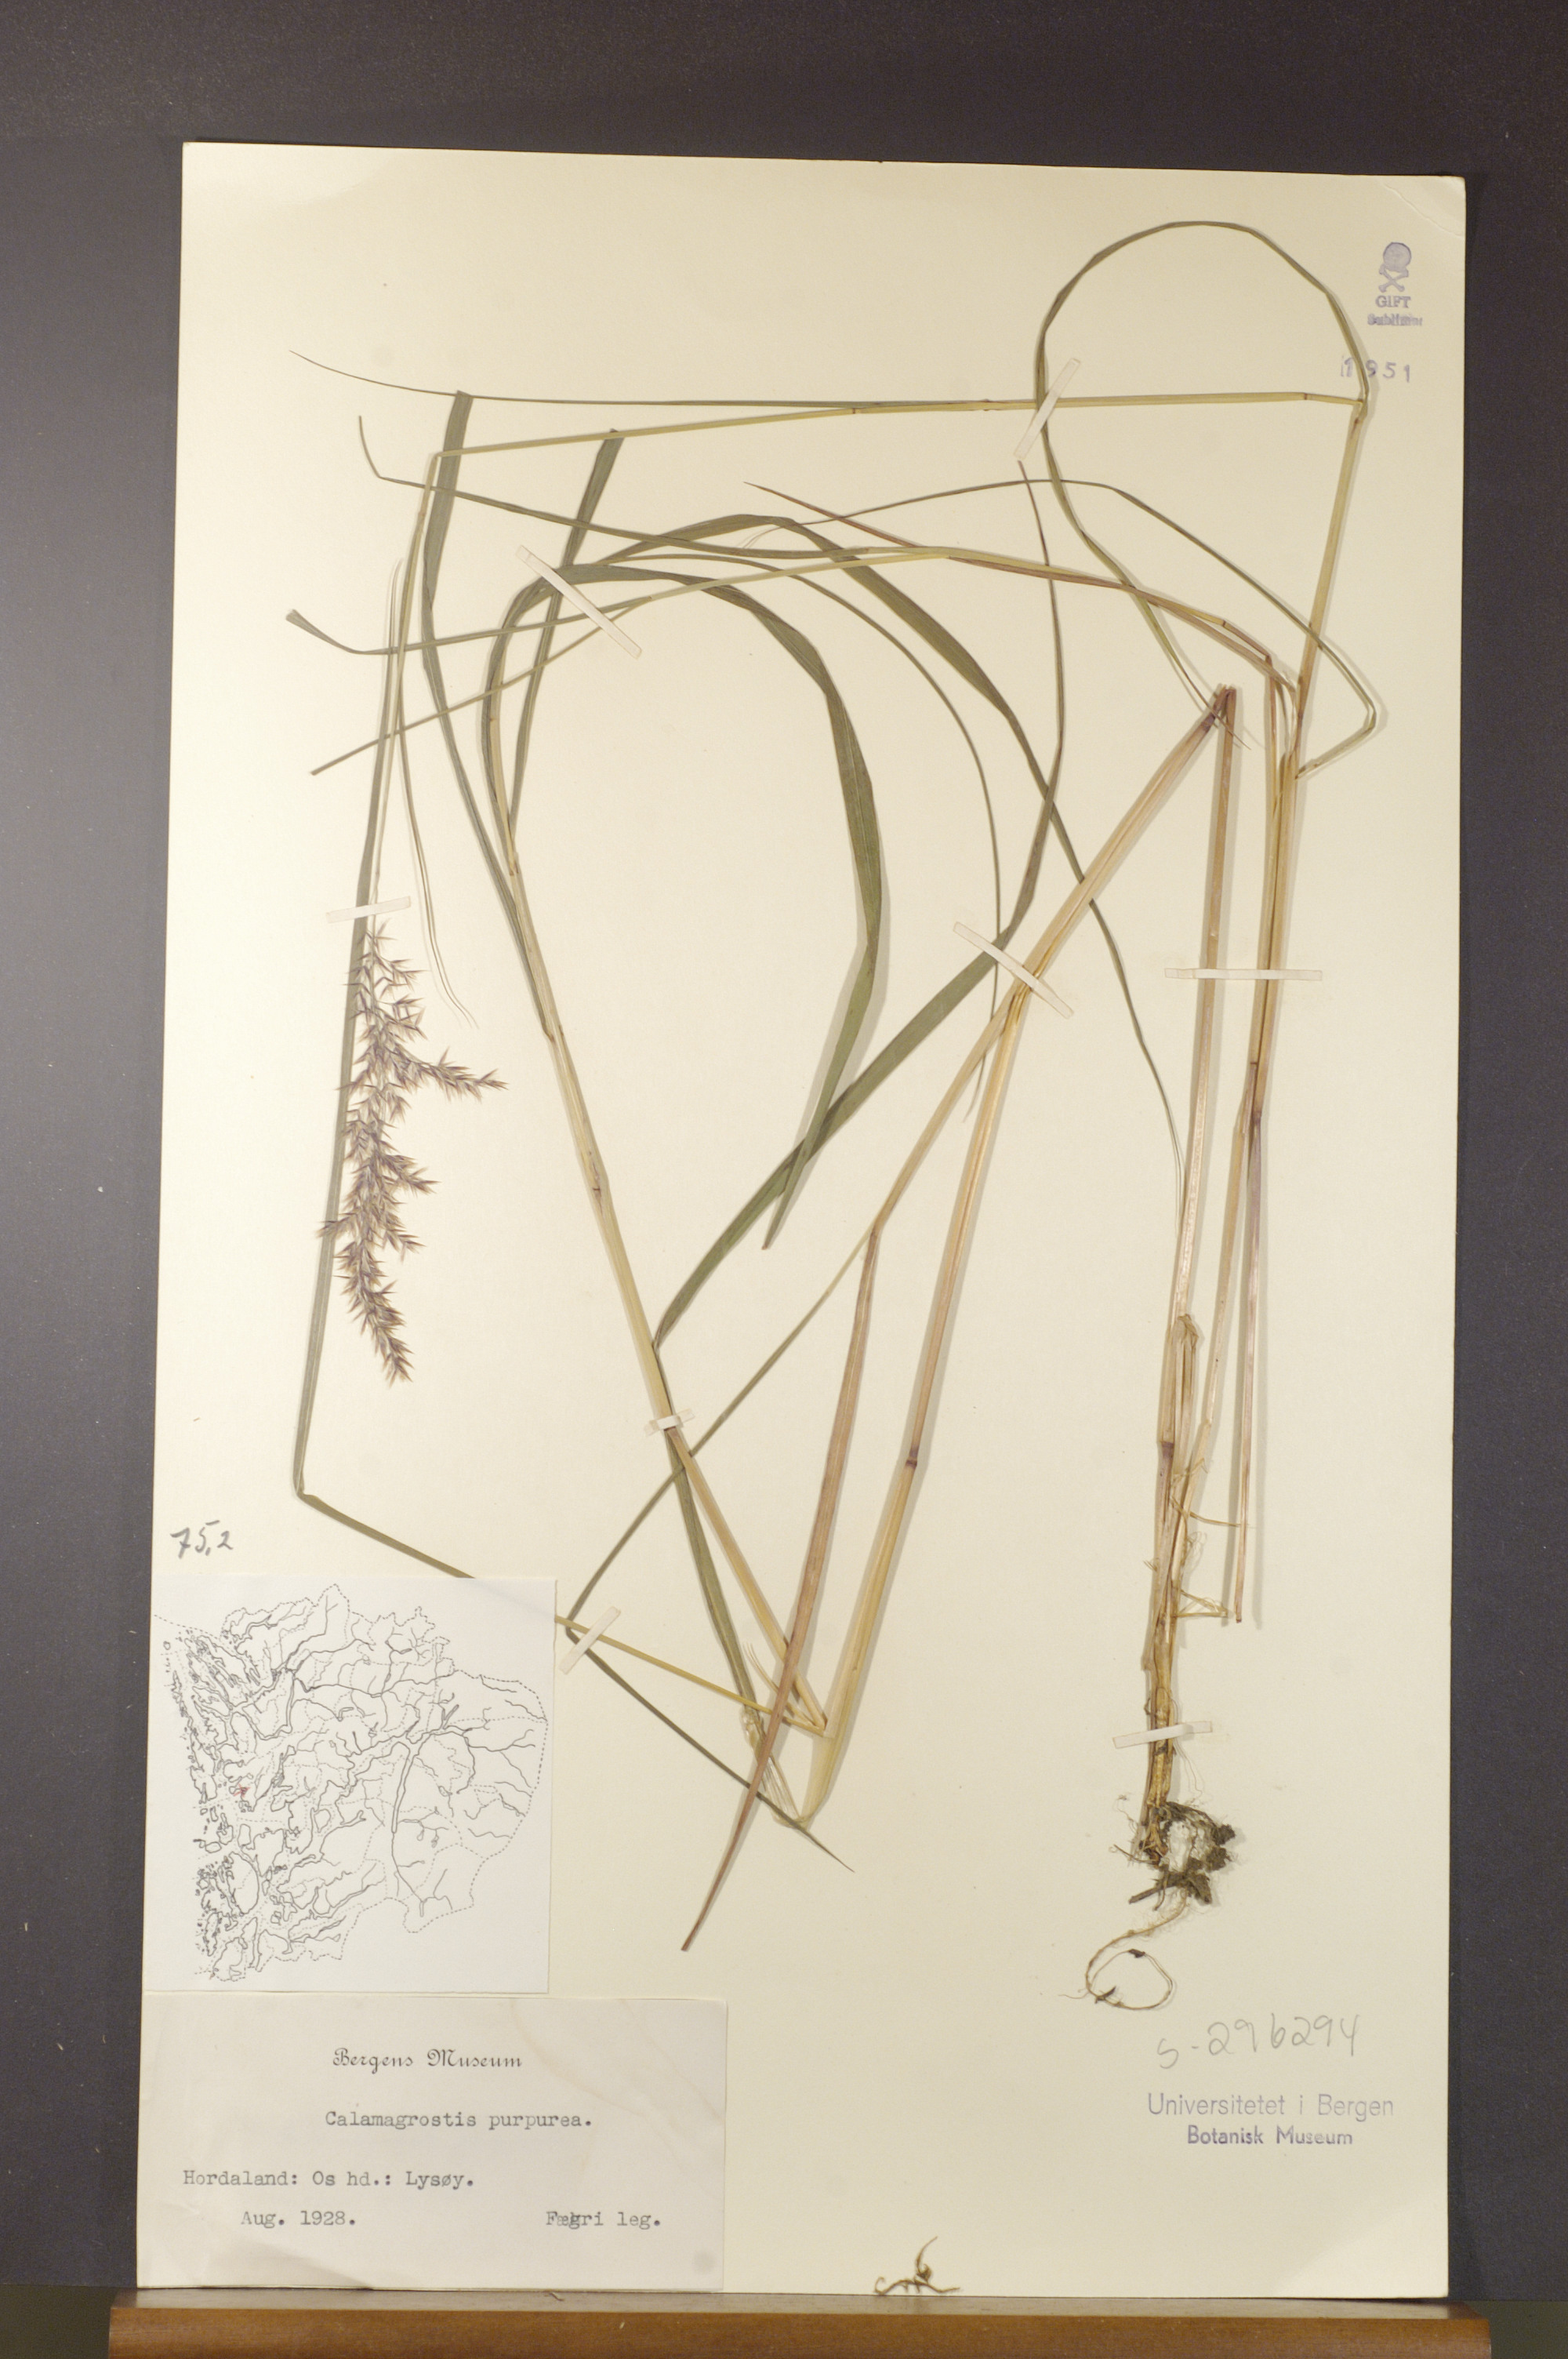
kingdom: Plantae
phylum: Tracheophyta
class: Liliopsida
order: Poales
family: Poaceae
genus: Calamagrostis
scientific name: Calamagrostis purpurea
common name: Scandinavian small-reed
